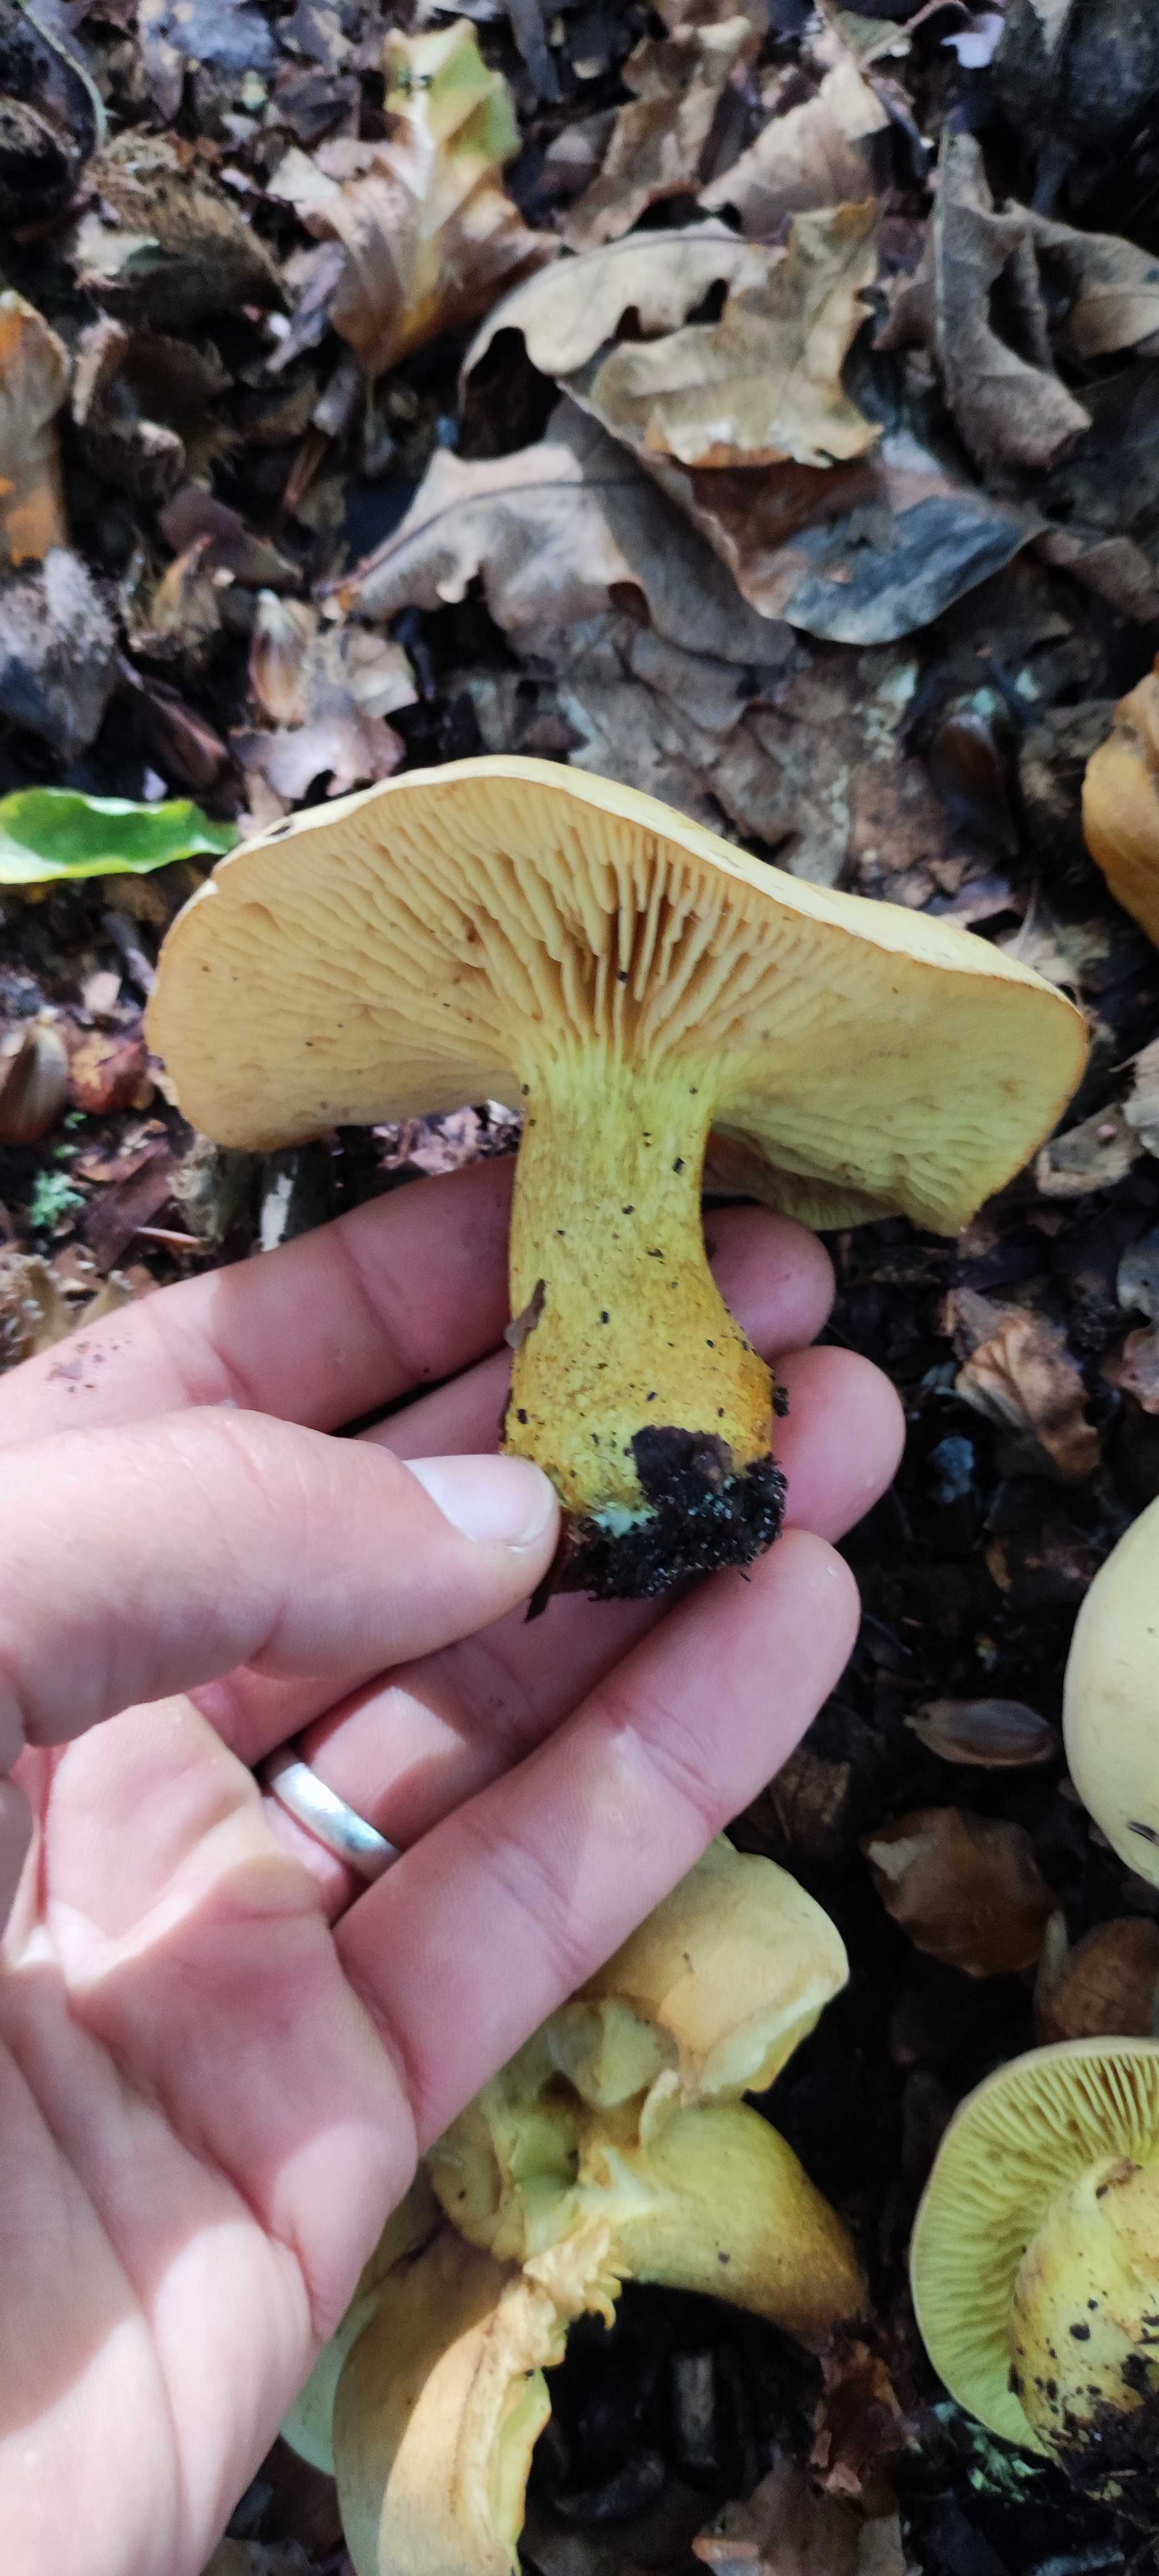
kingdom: Fungi
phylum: Basidiomycota
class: Agaricomycetes
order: Agaricales
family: Tricholomataceae
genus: Tricholoma
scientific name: Tricholoma sulphureum
